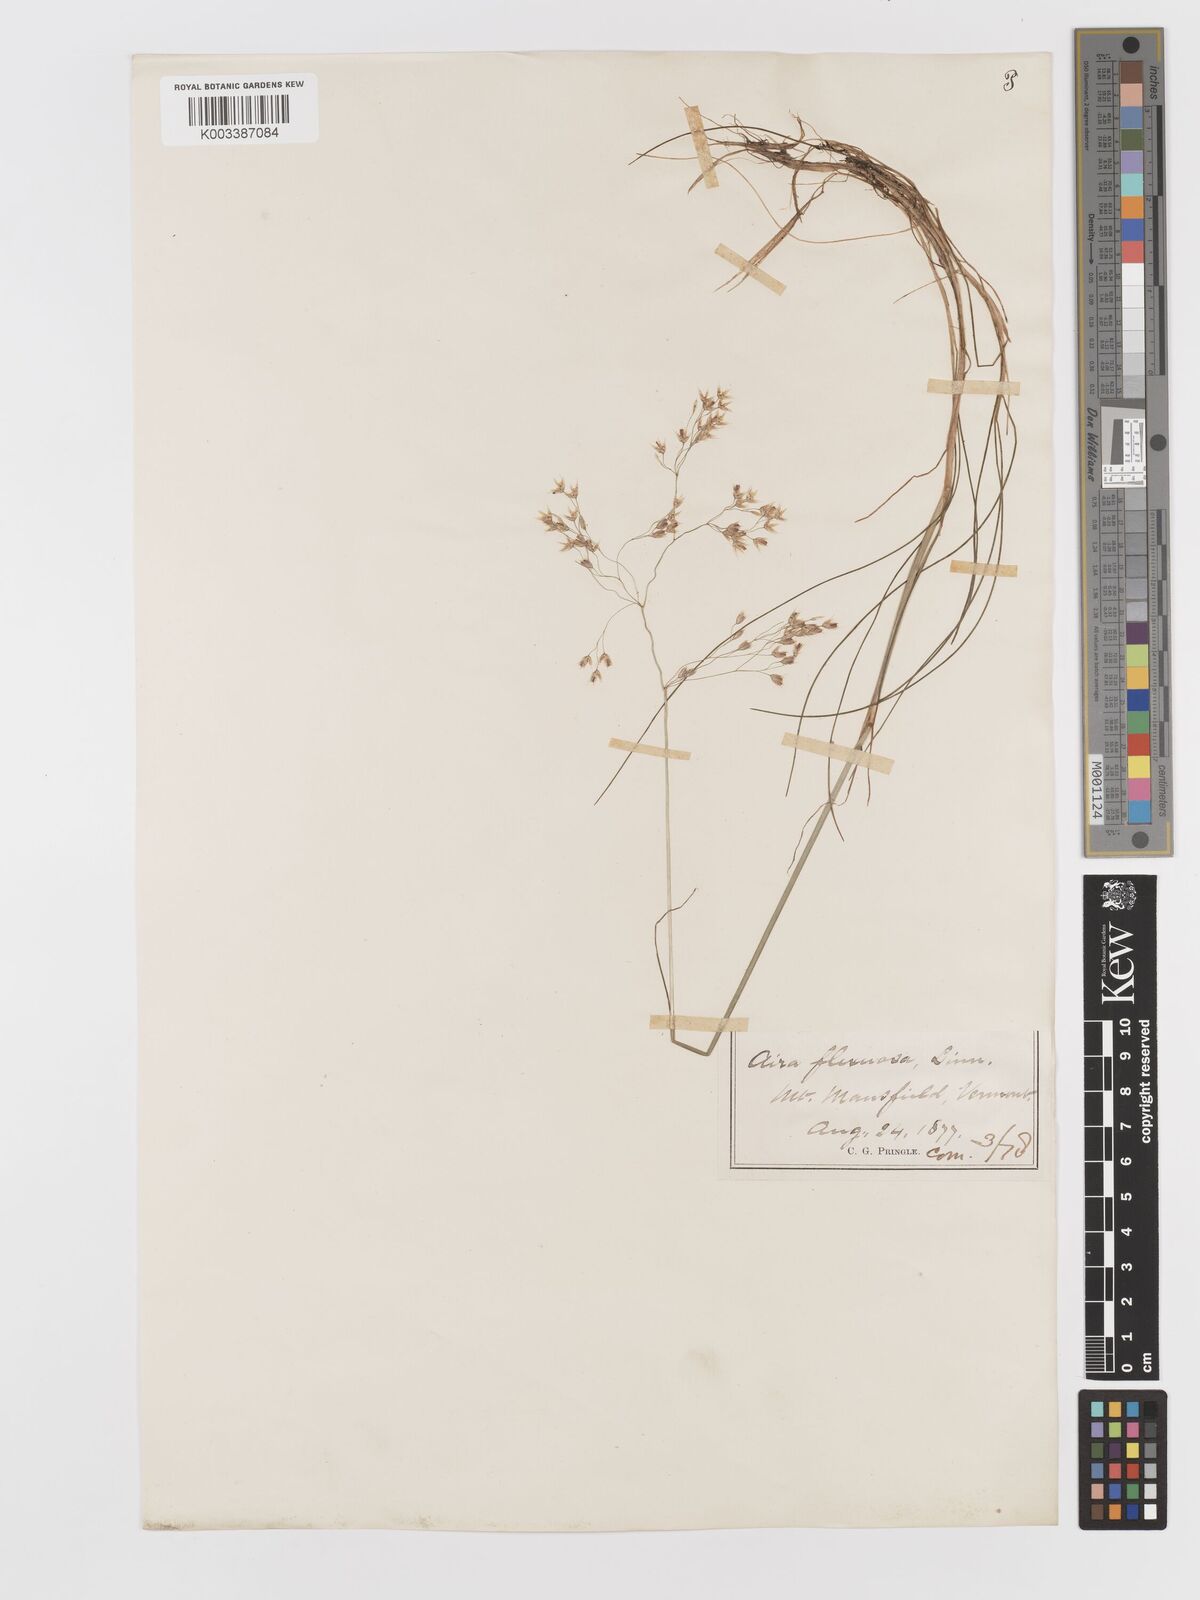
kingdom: Plantae
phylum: Tracheophyta
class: Liliopsida
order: Poales
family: Poaceae
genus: Avenella
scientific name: Avenella flexuosa
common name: Wavy hairgrass
